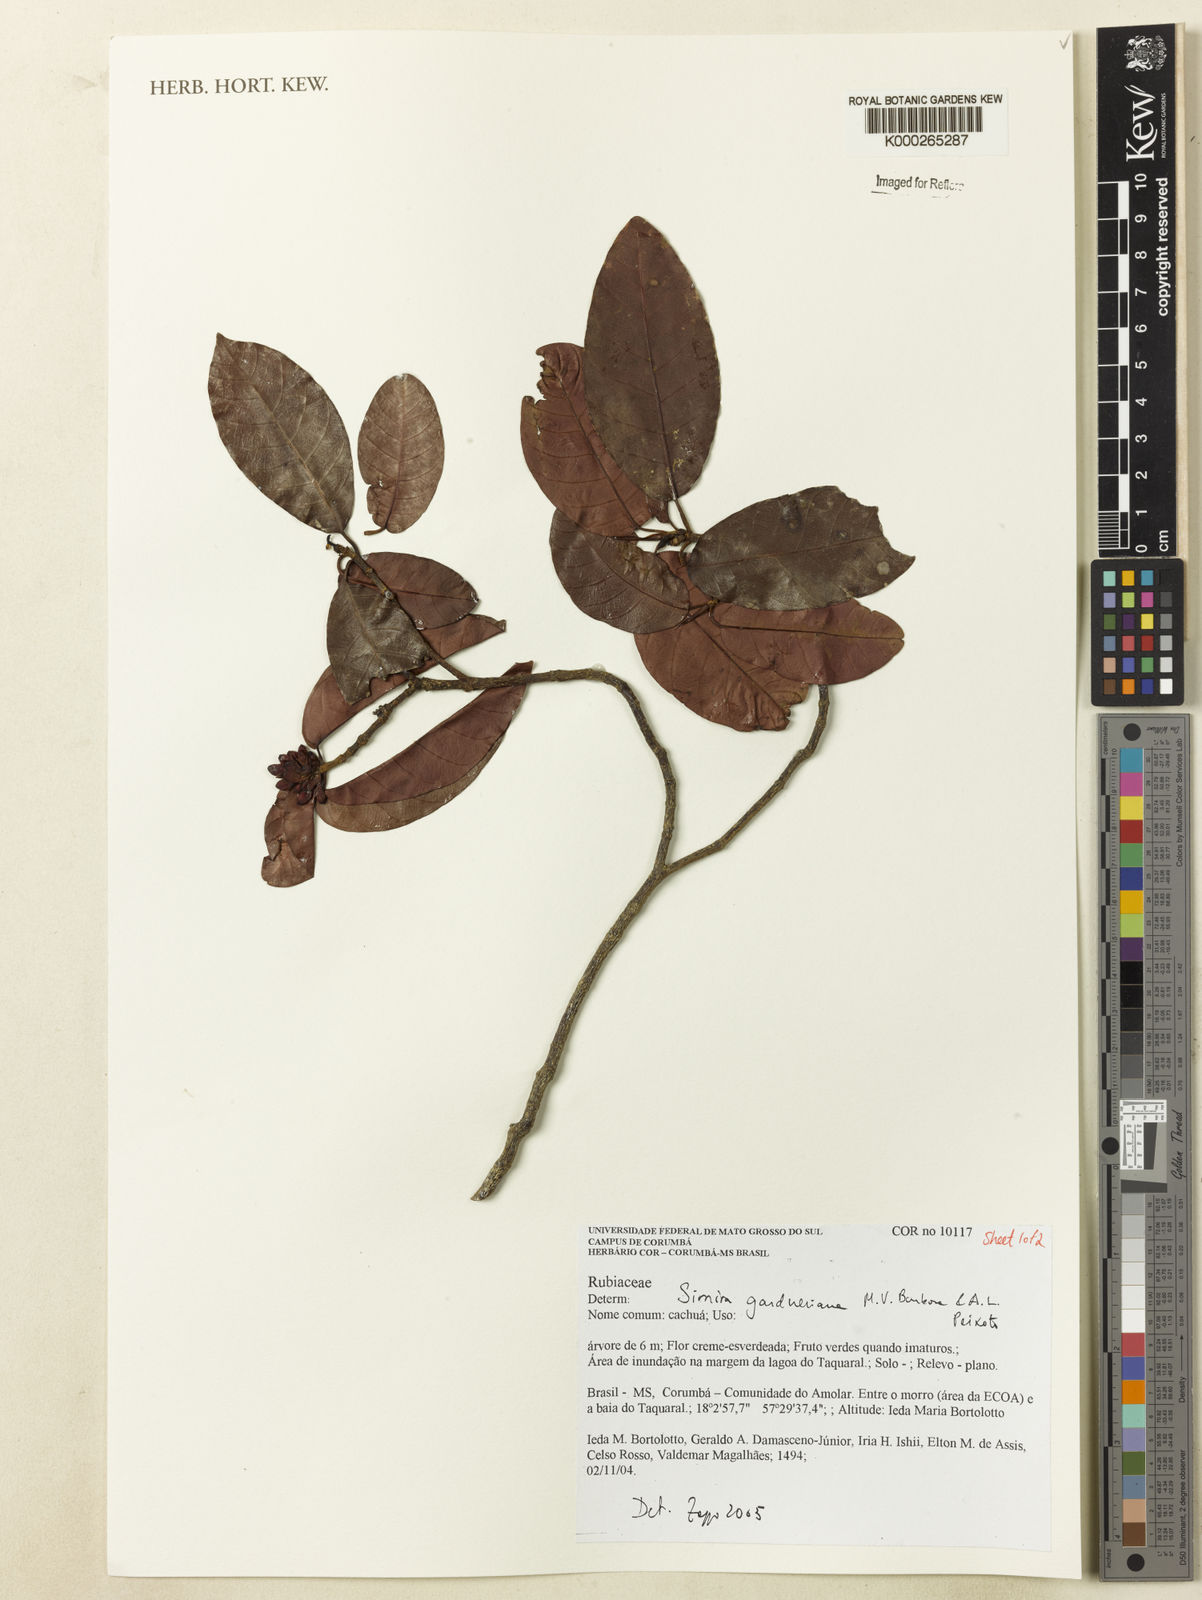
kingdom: Plantae
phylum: Tracheophyta
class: Magnoliopsida
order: Gentianales
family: Rubiaceae
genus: Simira
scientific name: Simira gardneriana
